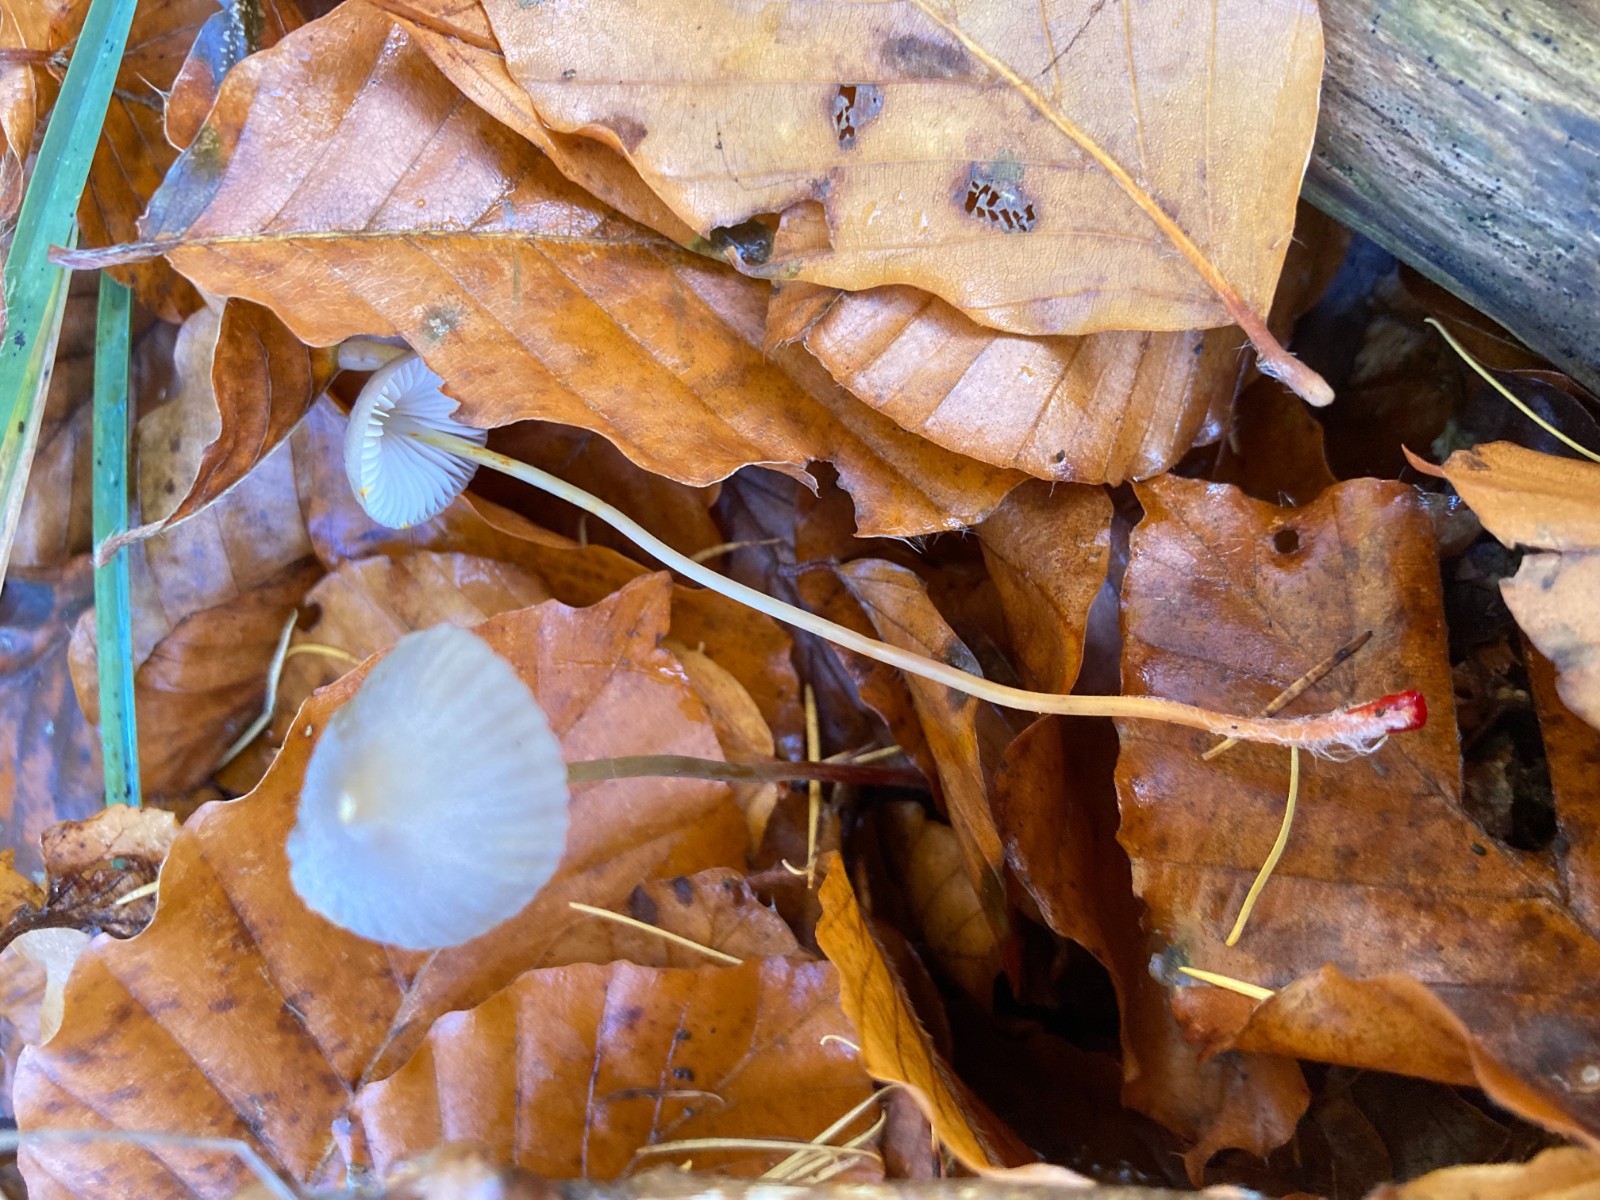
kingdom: Fungi
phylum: Basidiomycota
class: Agaricomycetes
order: Agaricales
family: Mycenaceae
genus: Mycena
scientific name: Mycena crocata
